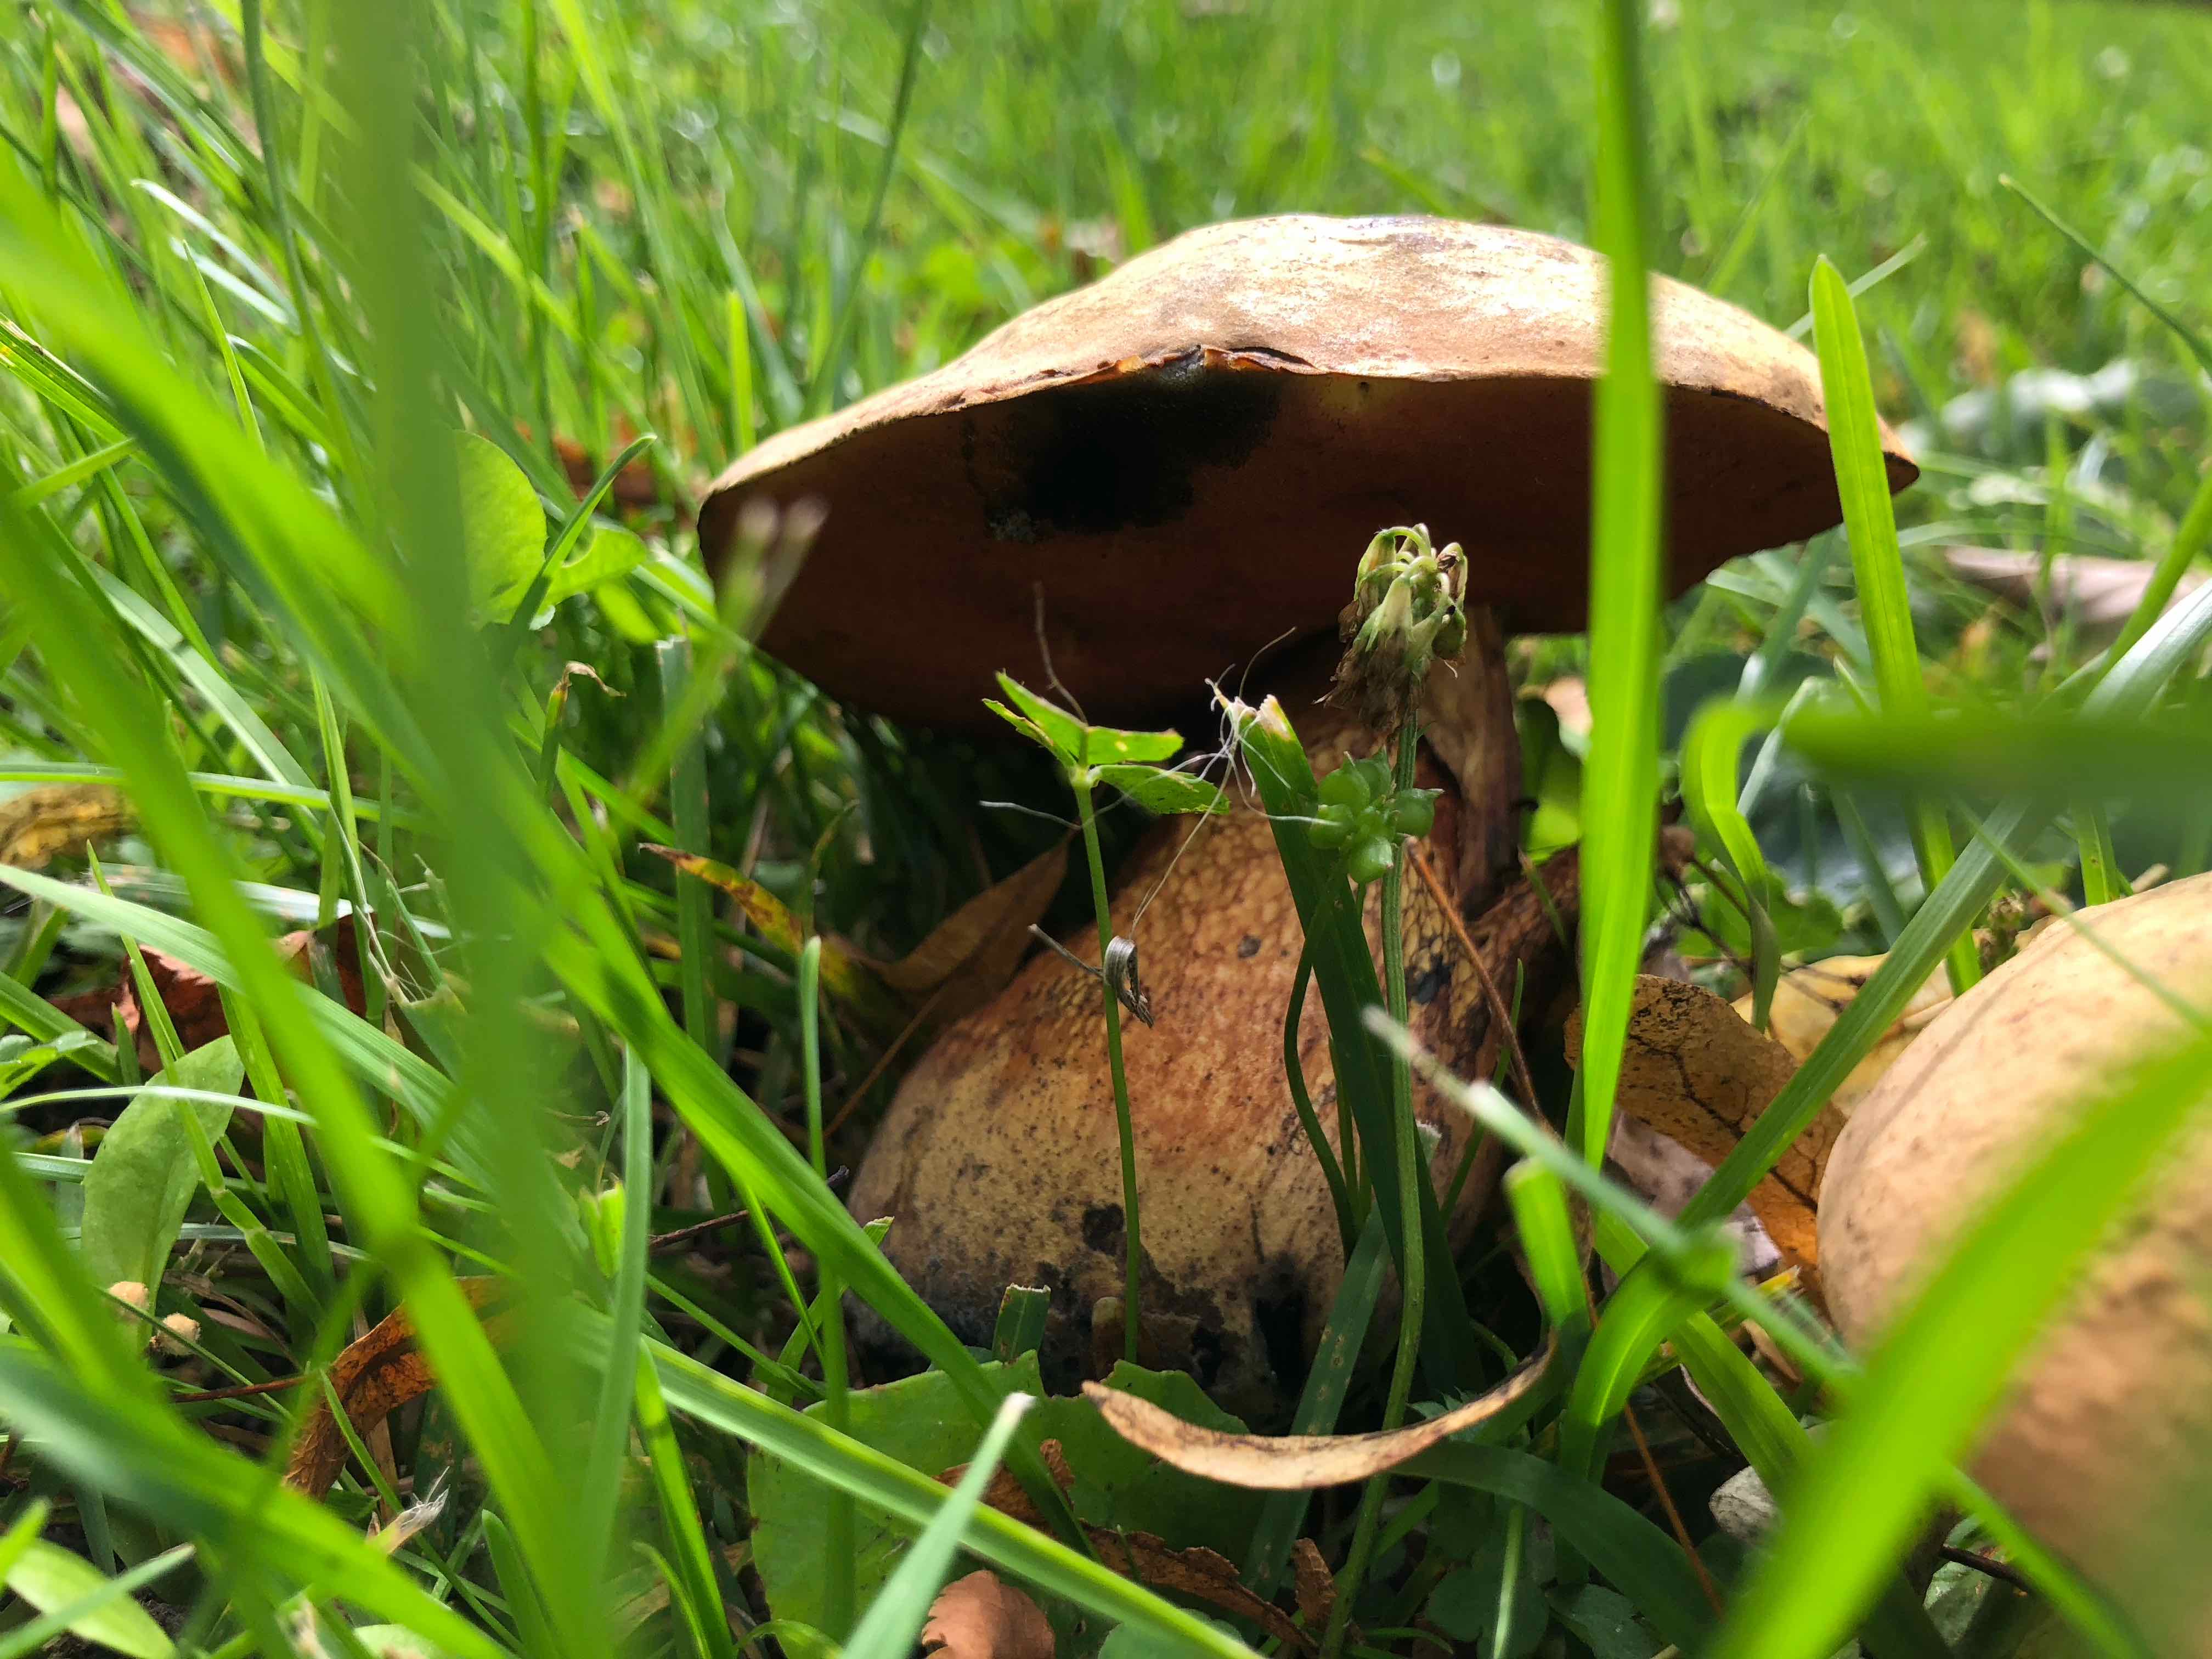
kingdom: Fungi
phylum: Basidiomycota
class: Agaricomycetes
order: Boletales
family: Boletaceae
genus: Suillellus
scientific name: Suillellus luridus
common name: netstokket indigorørhat
